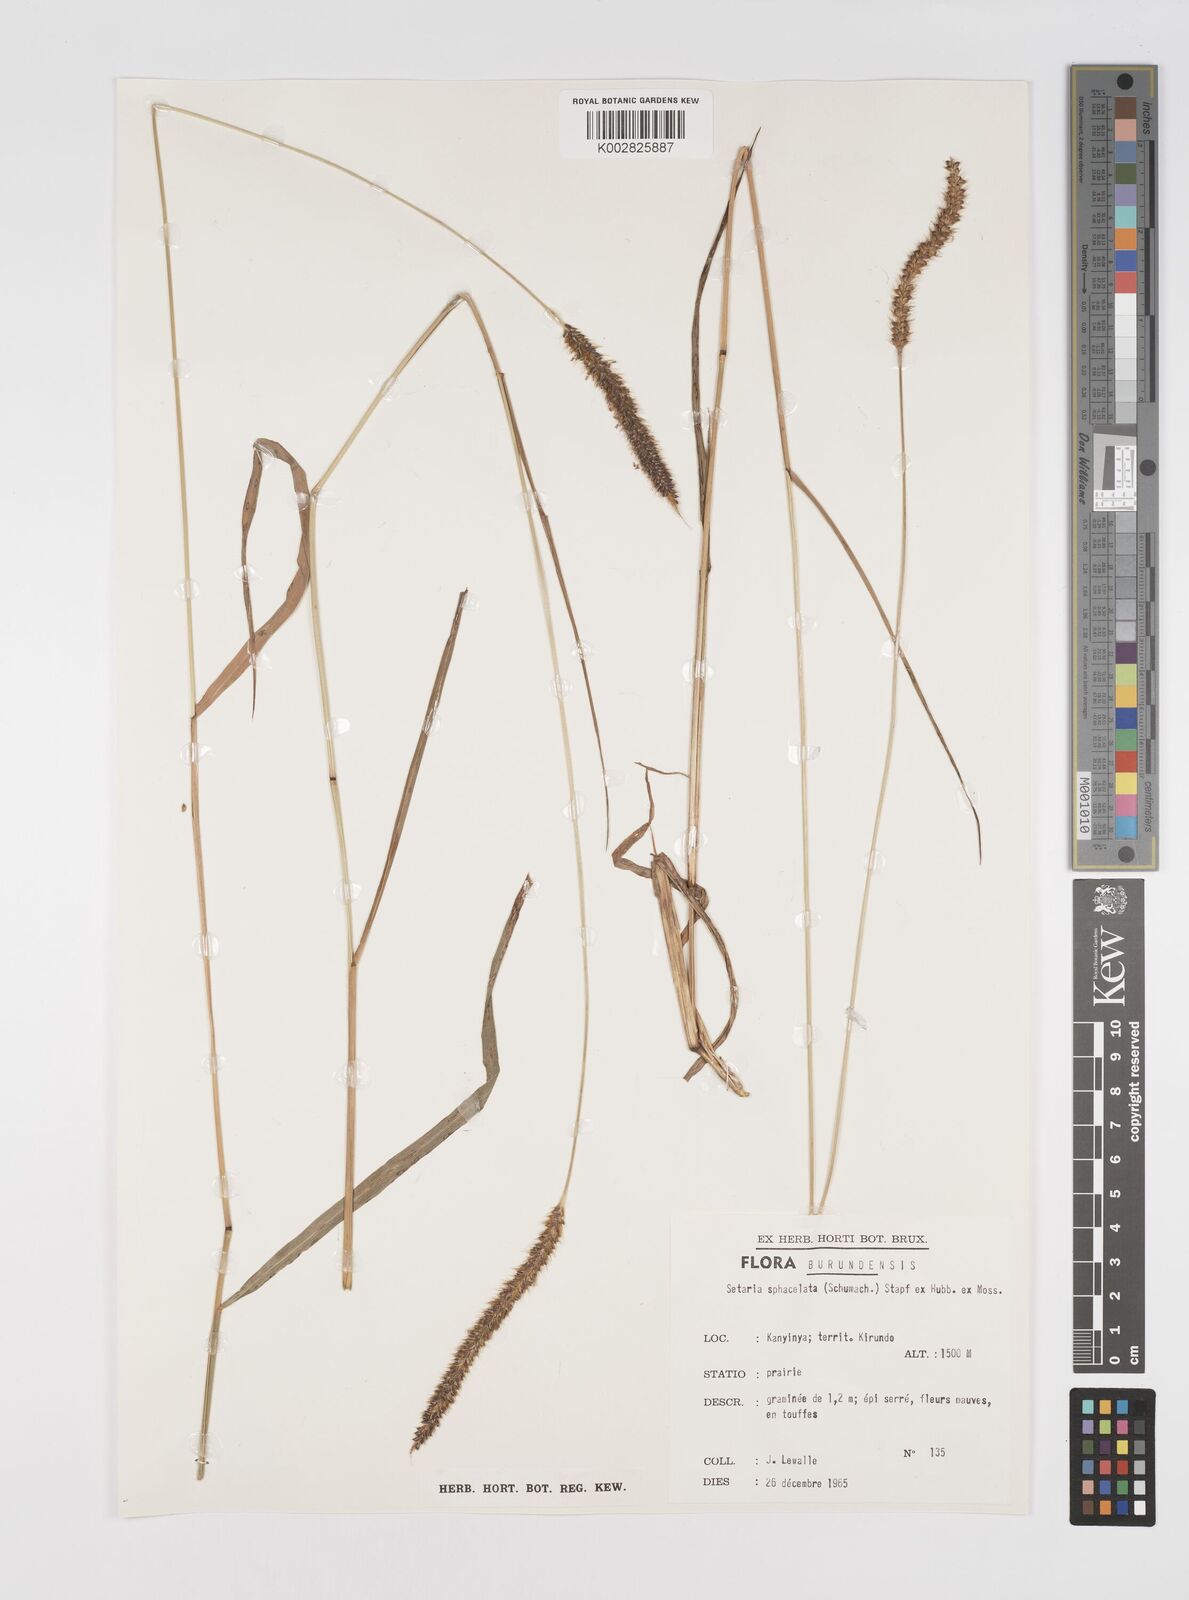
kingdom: Plantae
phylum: Tracheophyta
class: Liliopsida
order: Poales
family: Poaceae
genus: Setaria
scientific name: Setaria sphacelata
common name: African bristlegrass
